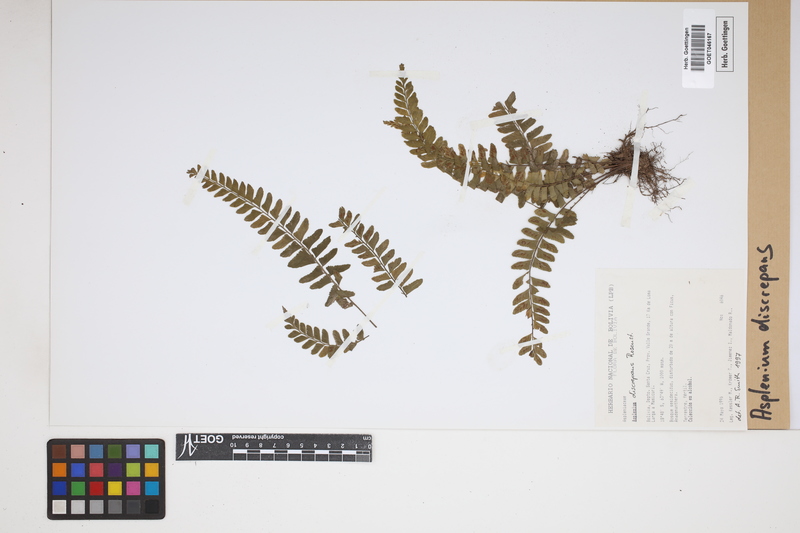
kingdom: Plantae
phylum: Tracheophyta
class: Polypodiopsida
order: Polypodiales
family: Aspleniaceae
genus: Asplenium
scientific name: Asplenium discrepans
